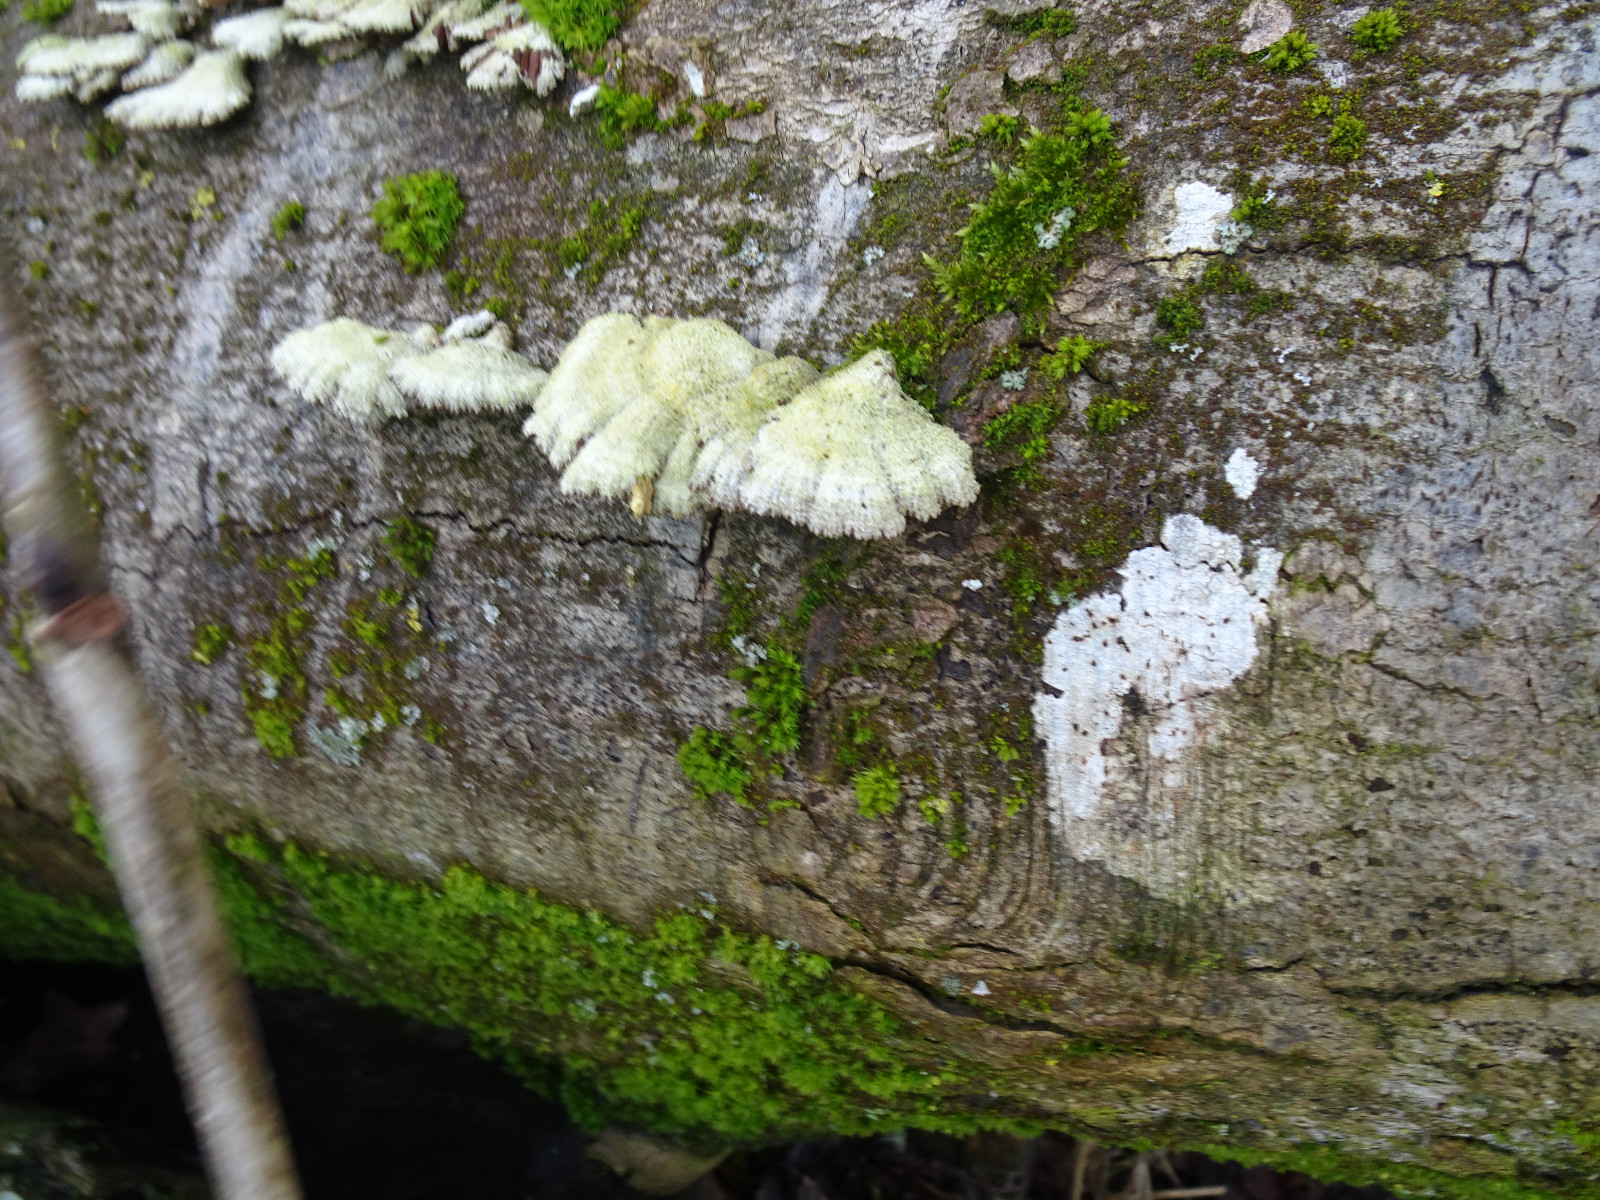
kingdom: Fungi
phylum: Basidiomycota
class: Agaricomycetes
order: Agaricales
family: Schizophyllaceae
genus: Schizophyllum
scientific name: Schizophyllum commune
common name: kløvblad
